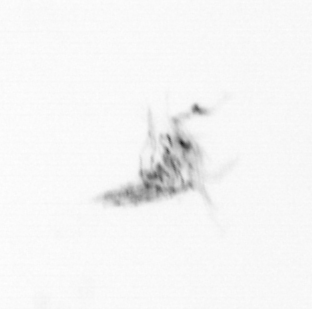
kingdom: Animalia
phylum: Arthropoda
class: Maxillopoda
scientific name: Maxillopoda
